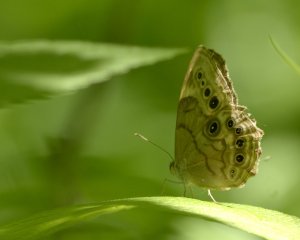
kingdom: Animalia
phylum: Arthropoda
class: Insecta
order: Lepidoptera
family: Nymphalidae
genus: Lethe
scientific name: Lethe anthedon
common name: Northern Pearly-Eye
